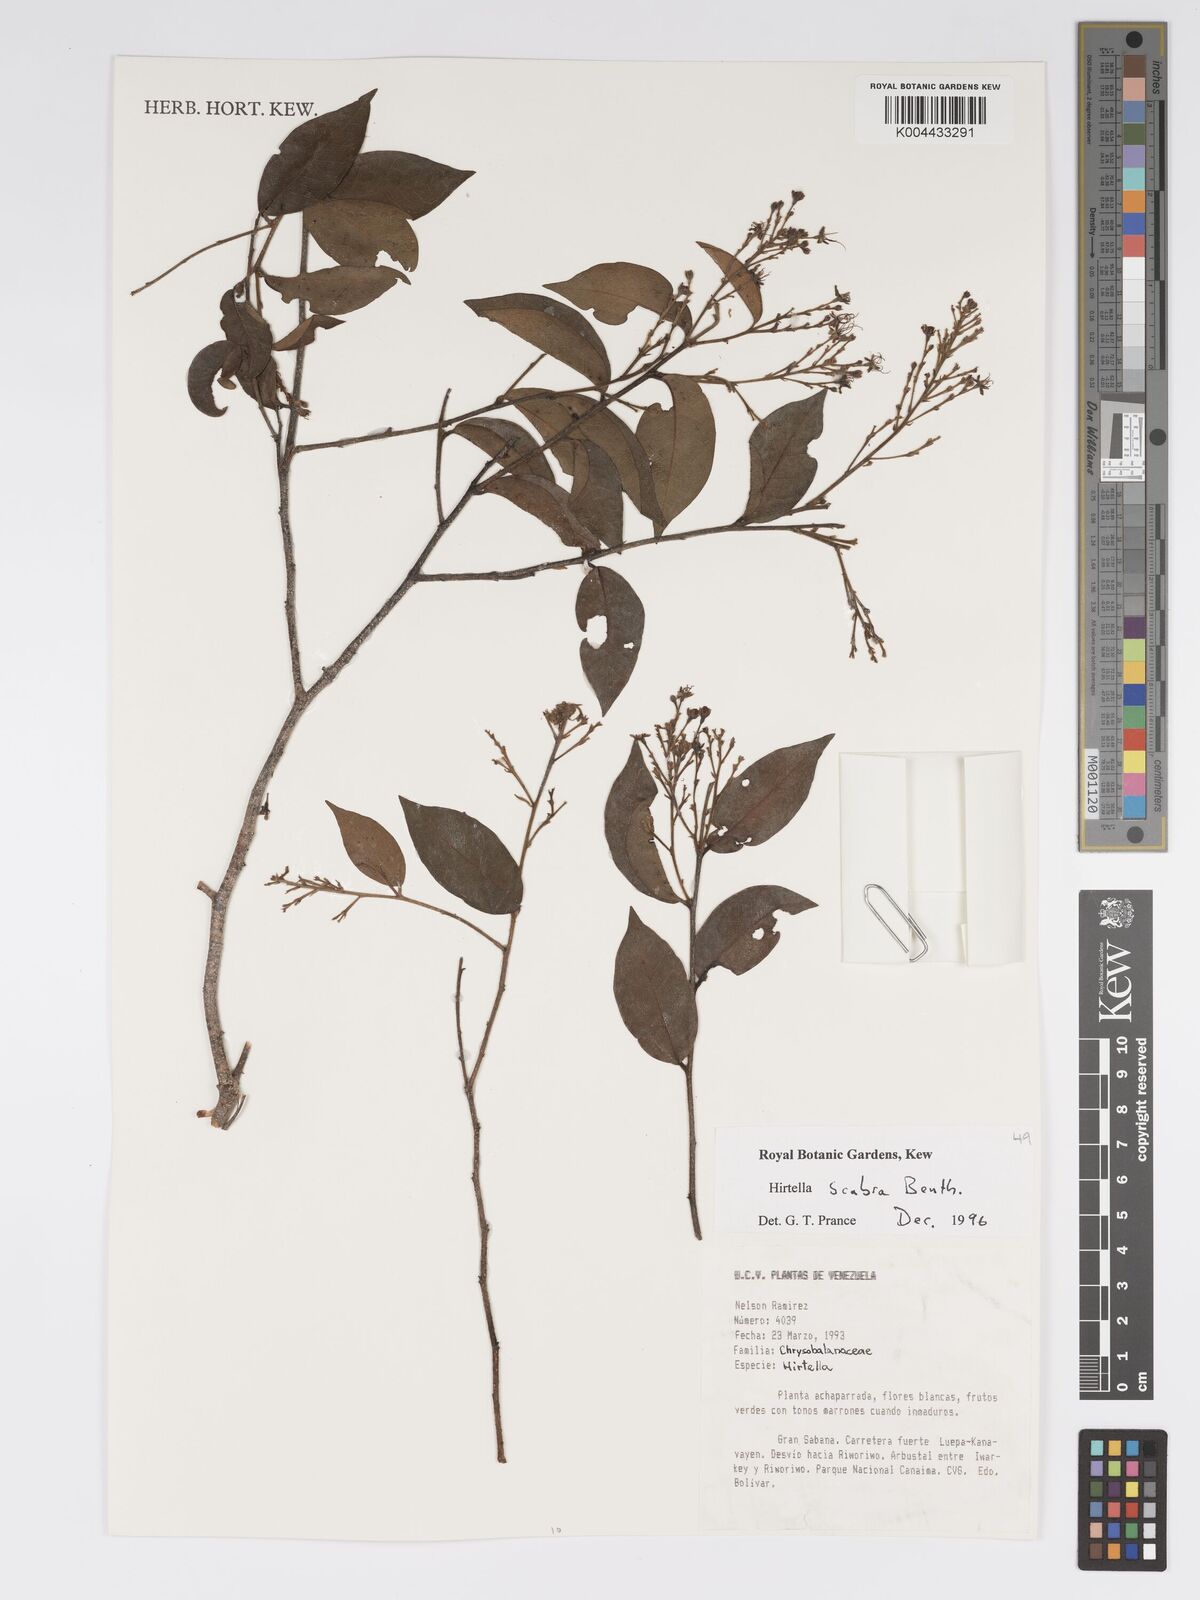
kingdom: Plantae
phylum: Tracheophyta
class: Magnoliopsida
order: Malpighiales
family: Chrysobalanaceae
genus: Hirtella
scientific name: Hirtella scabra
